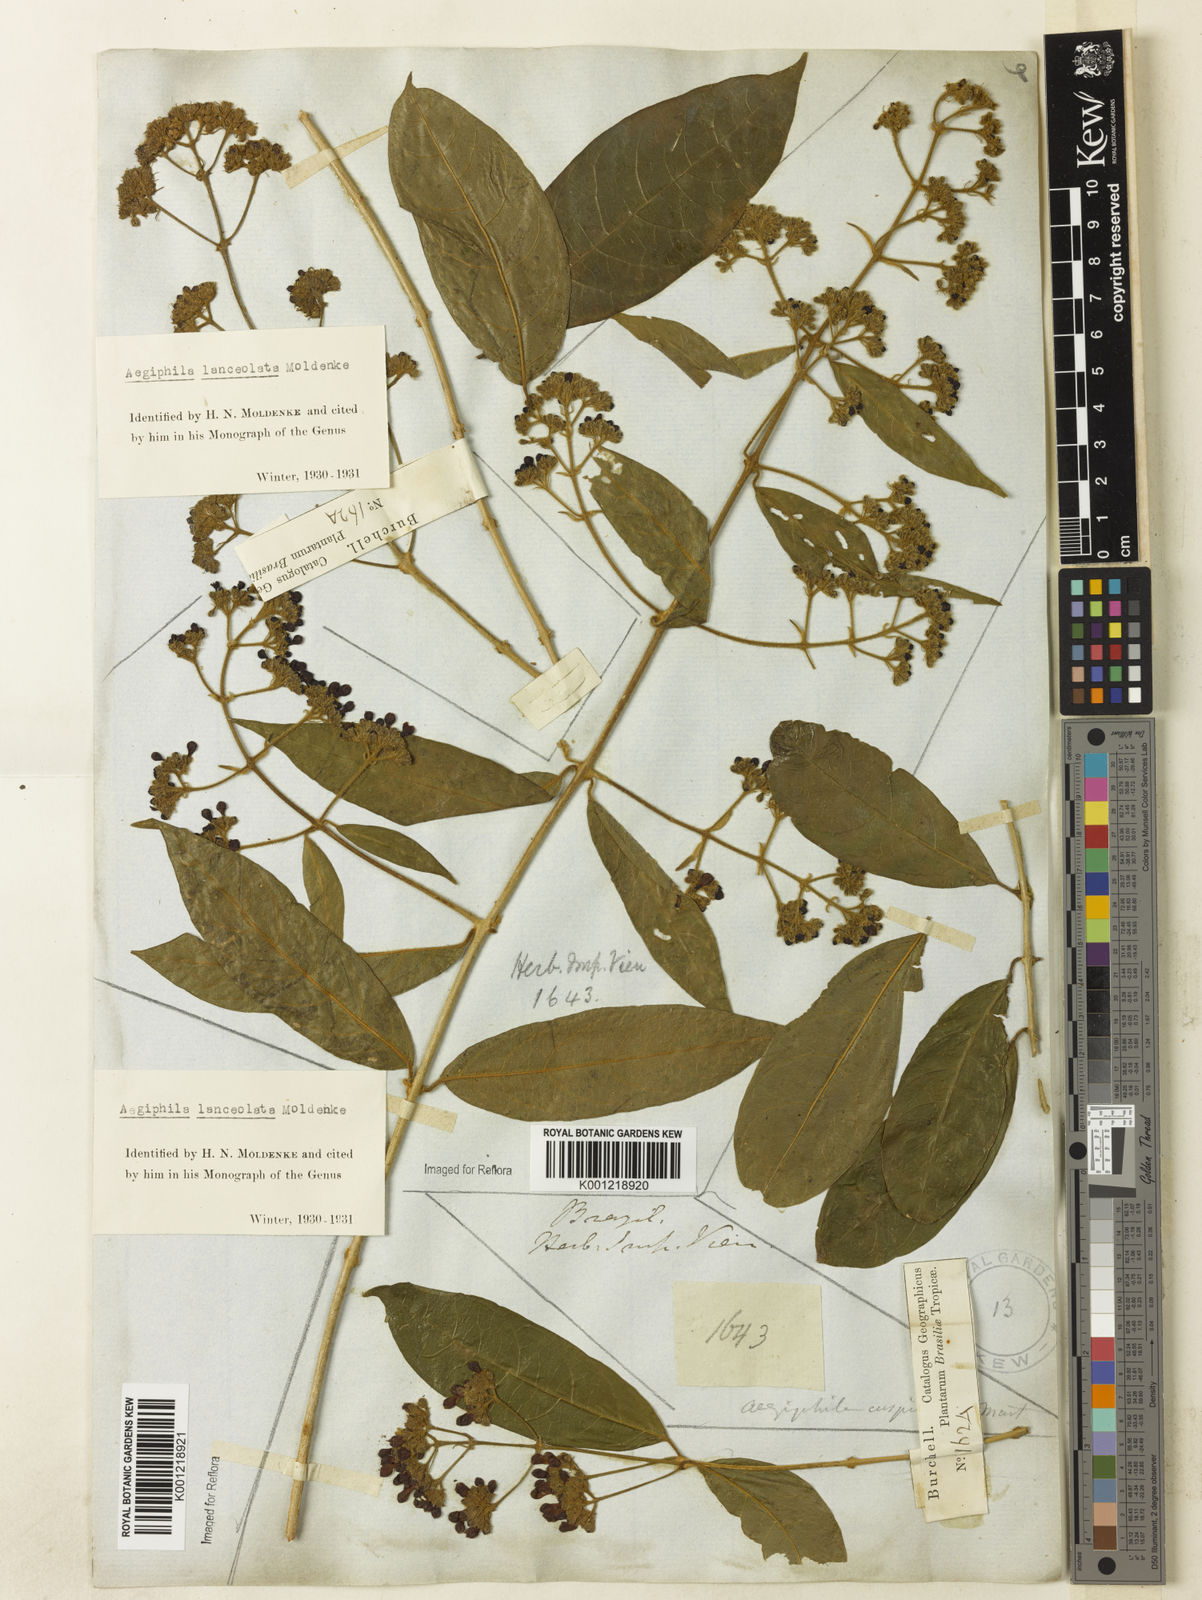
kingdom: Plantae
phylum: Tracheophyta
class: Magnoliopsida
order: Lamiales
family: Lamiaceae
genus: Aegiphila
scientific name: Aegiphila vitelliniflora
